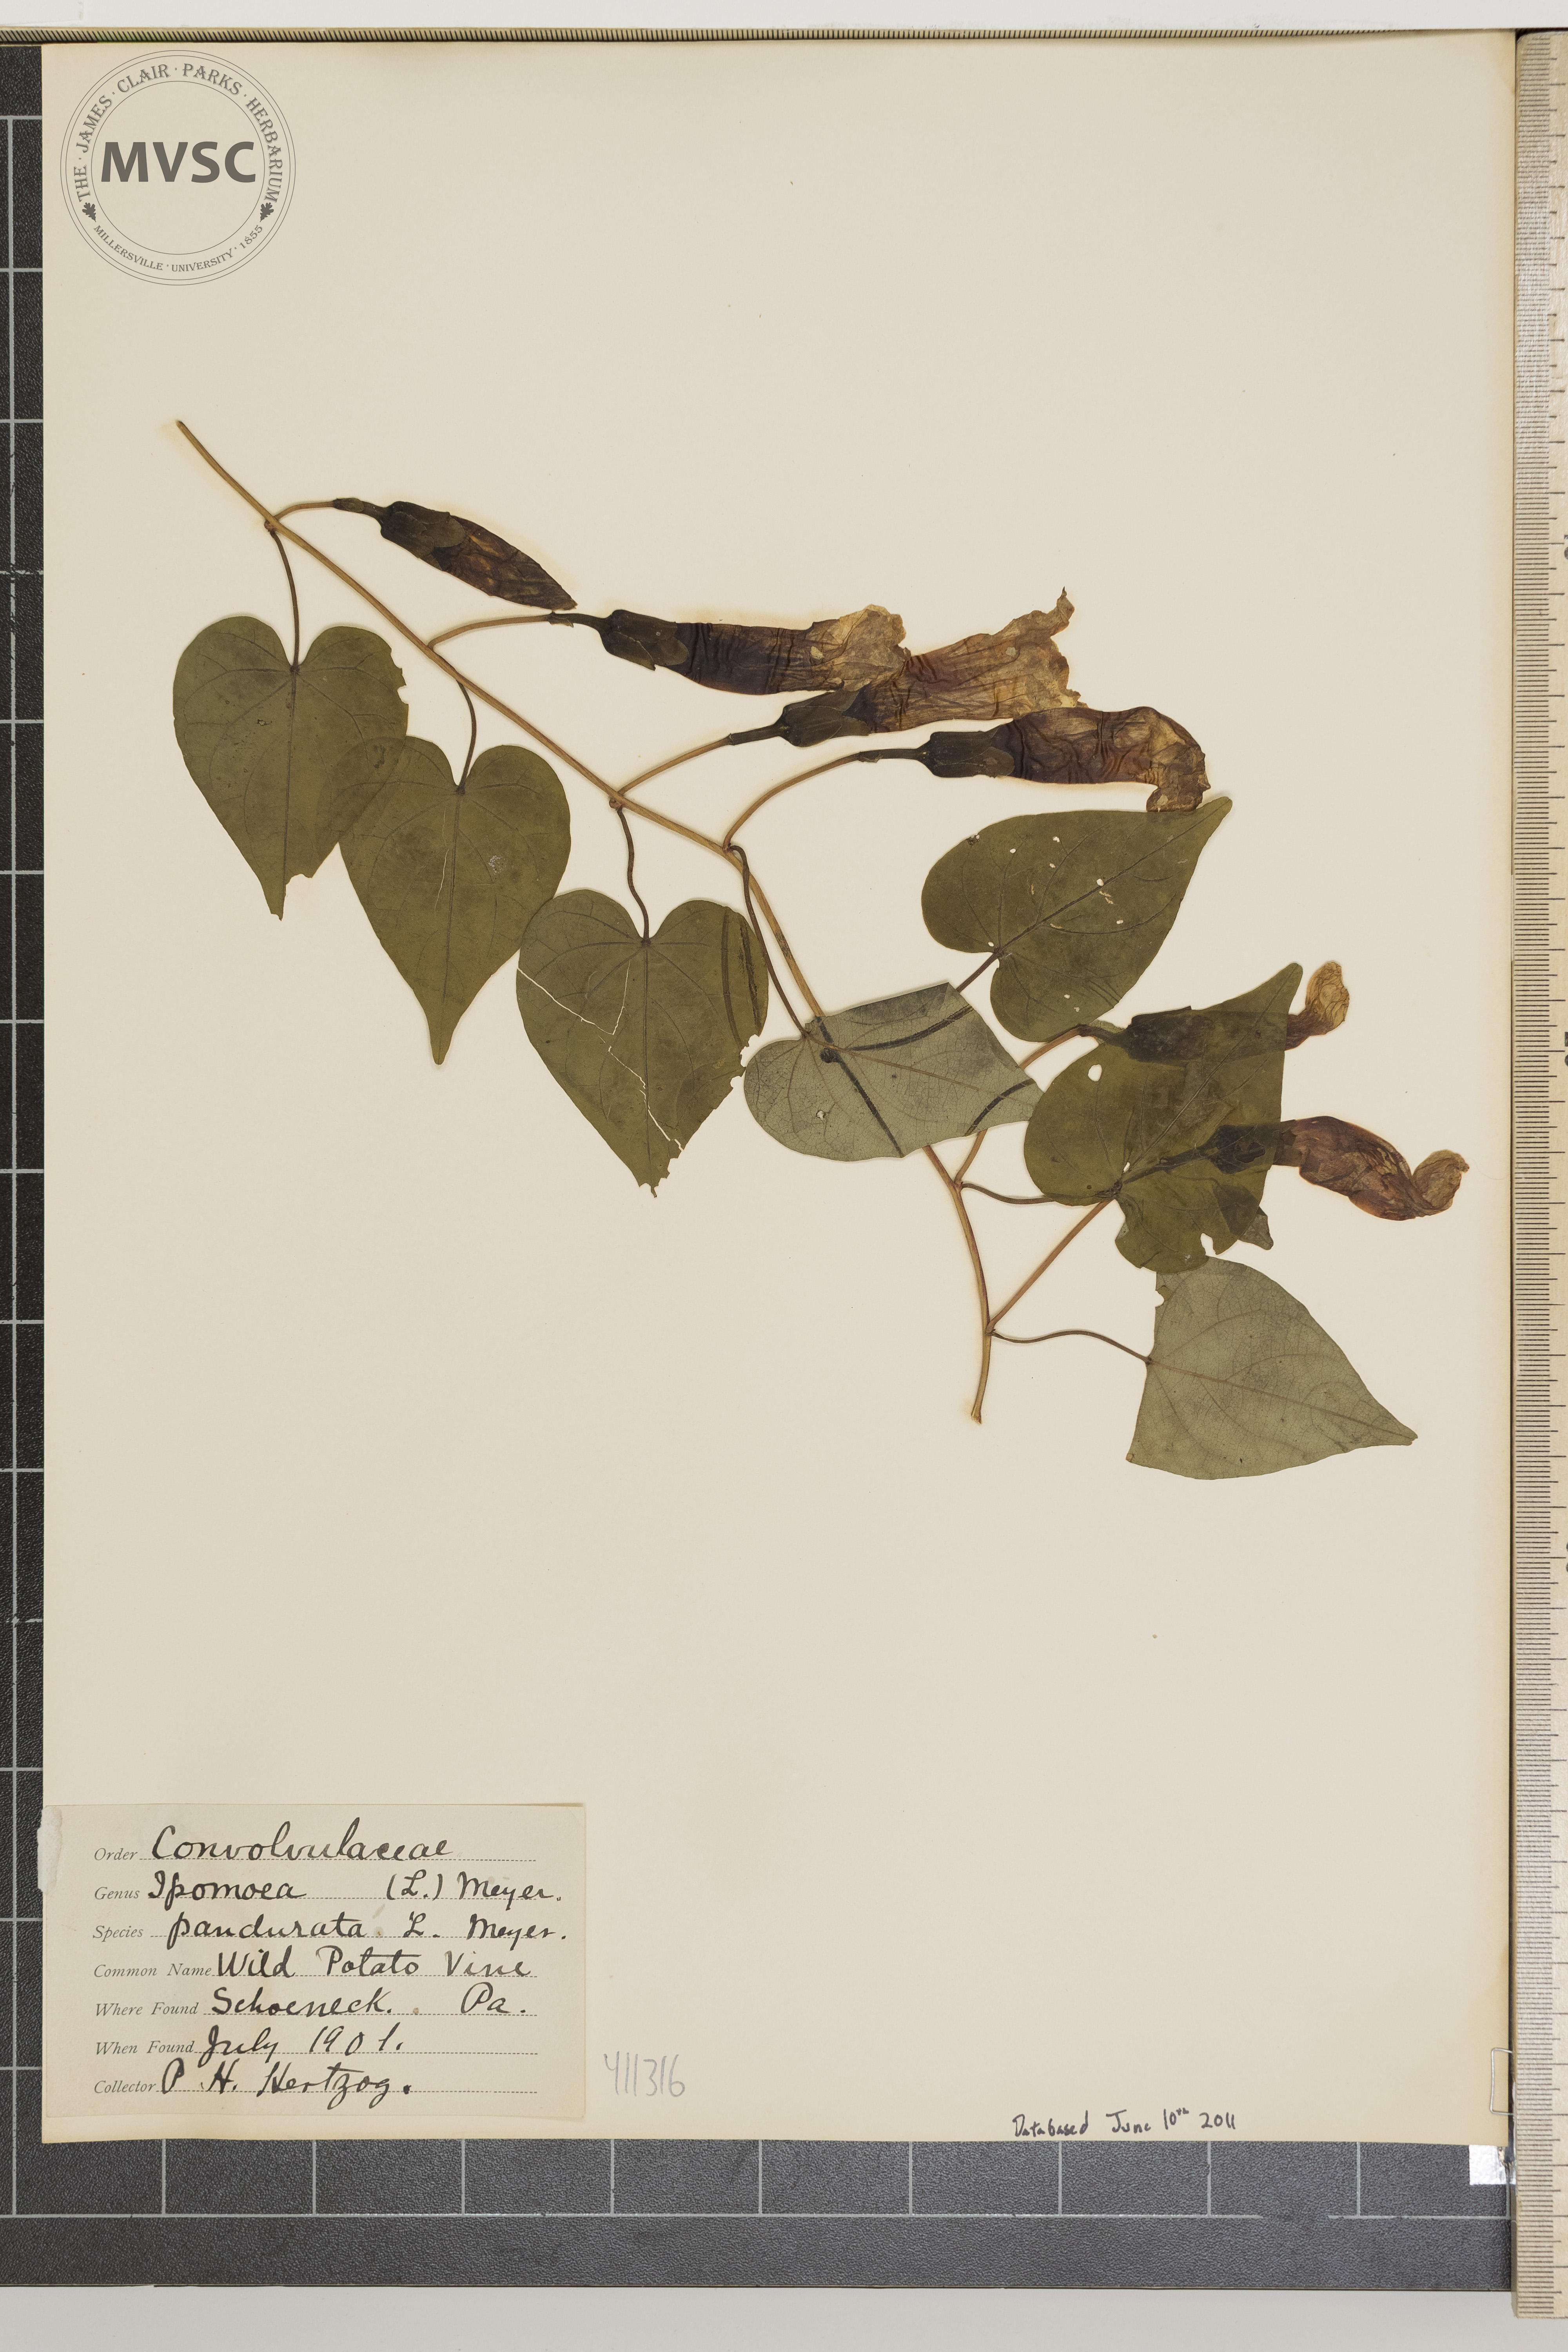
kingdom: Plantae
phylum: Tracheophyta
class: Magnoliopsida
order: Solanales
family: Convolvulaceae
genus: Ipomoea
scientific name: Ipomoea lindenii
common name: Wild potato vine
